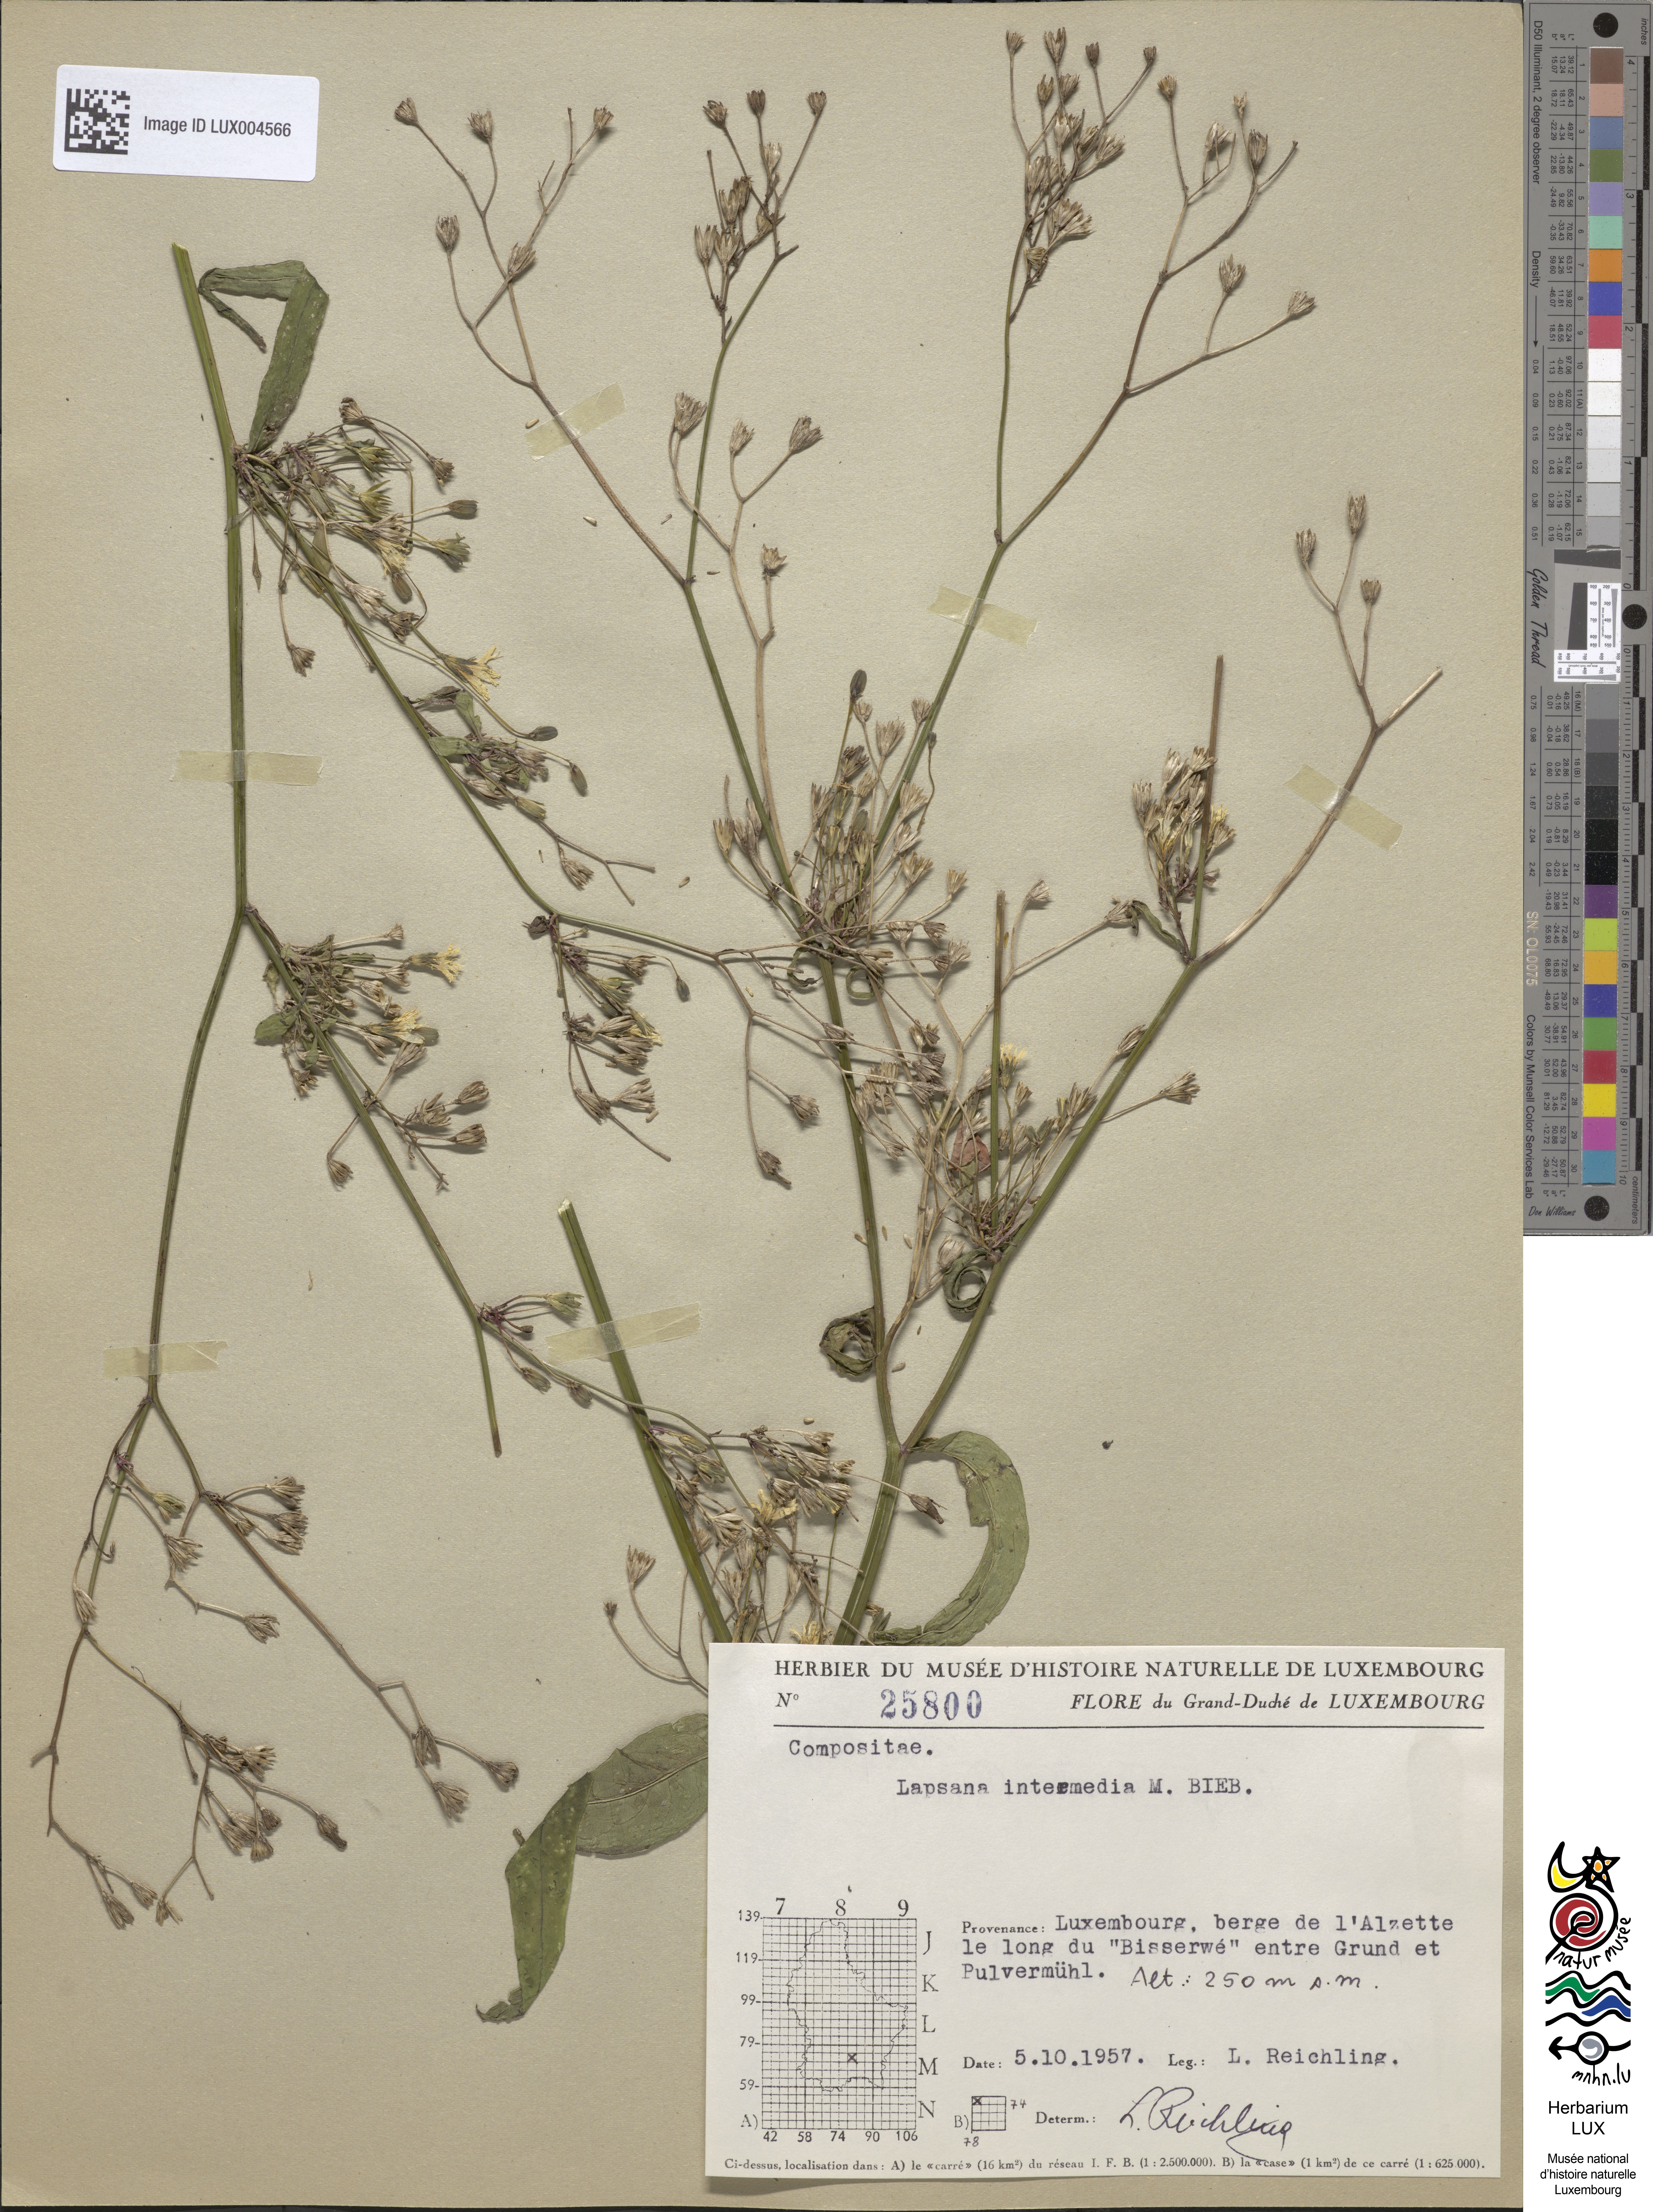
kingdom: Plantae
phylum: Tracheophyta
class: Magnoliopsida
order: Asterales
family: Asteraceae
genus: Lapsana
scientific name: Lapsana communis
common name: Nipplewort
